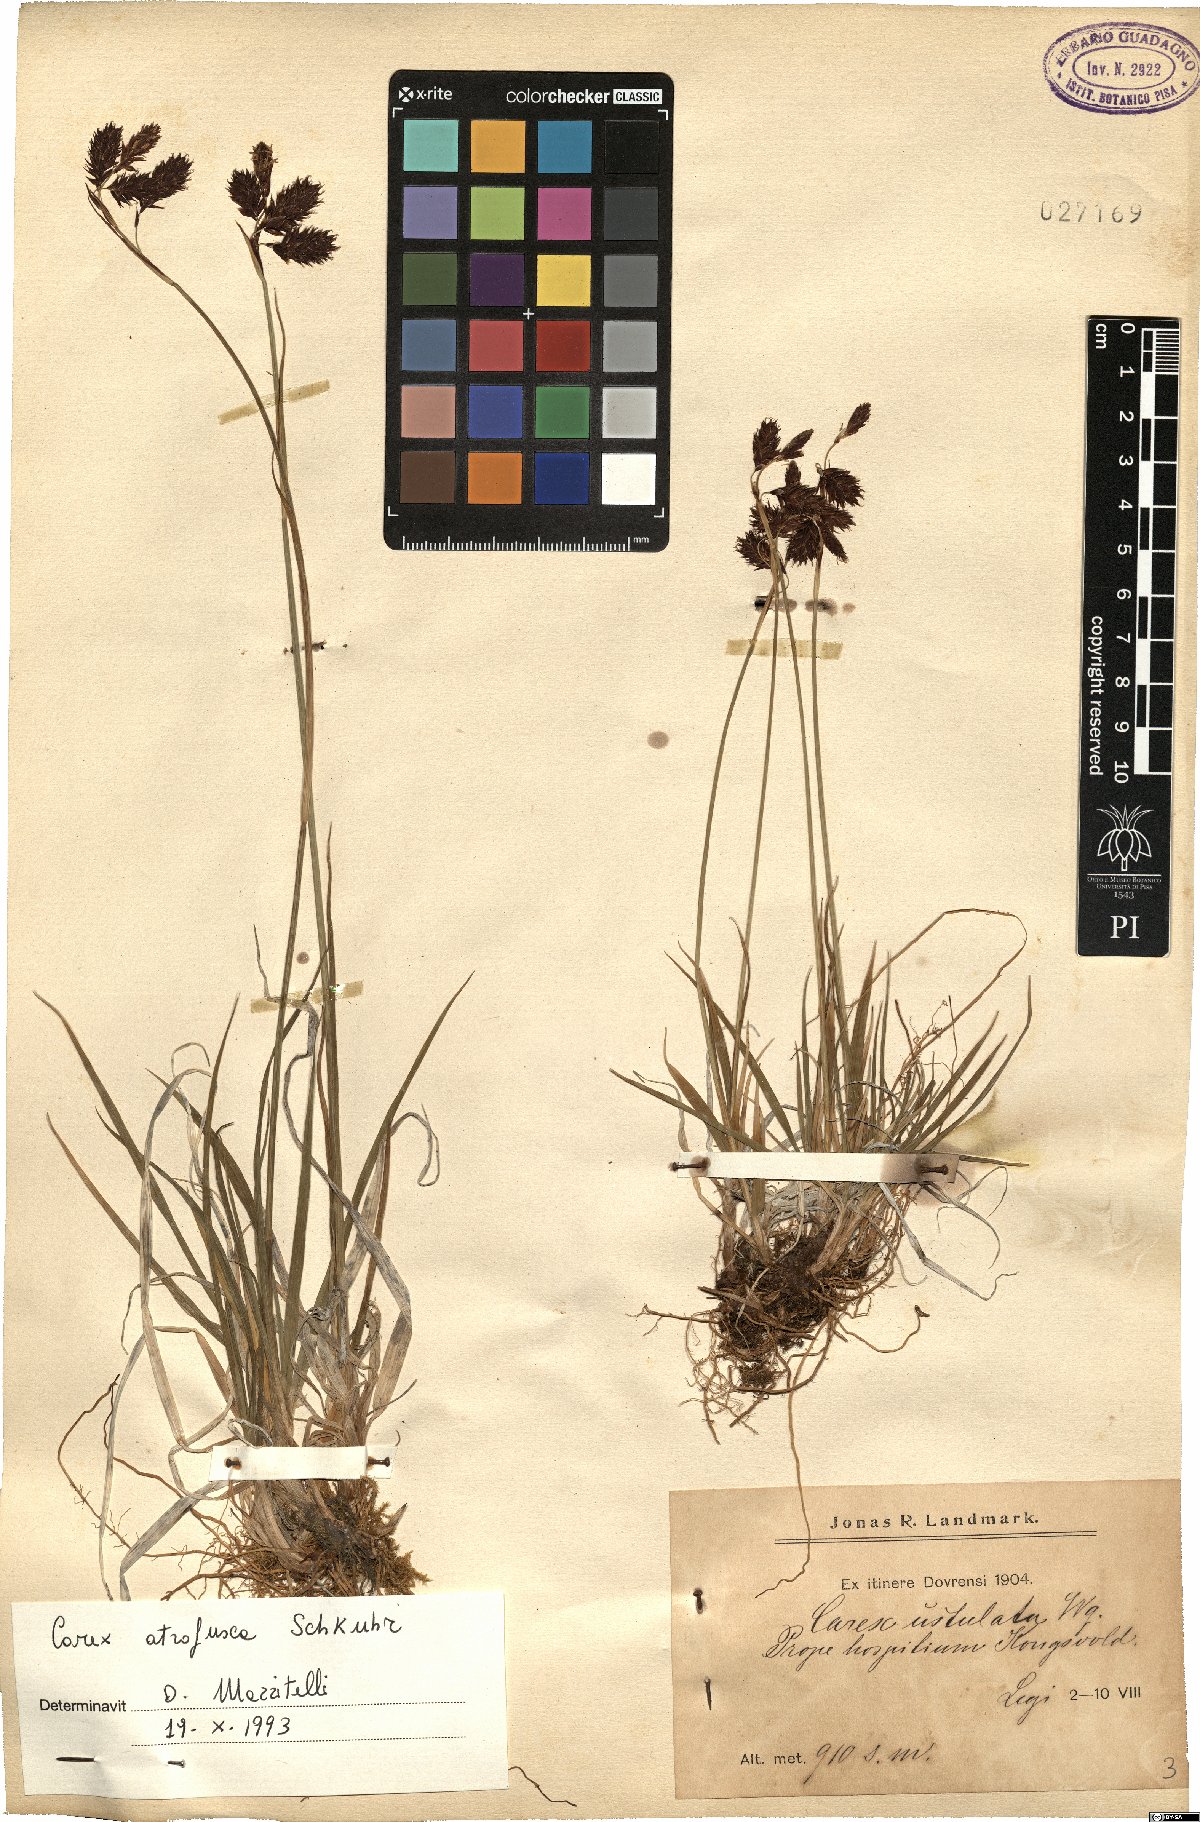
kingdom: Plantae
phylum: Tracheophyta
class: Liliopsida
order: Poales
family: Cyperaceae
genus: Carex
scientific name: Carex atrofusca
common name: Scorched alpine-sedge
